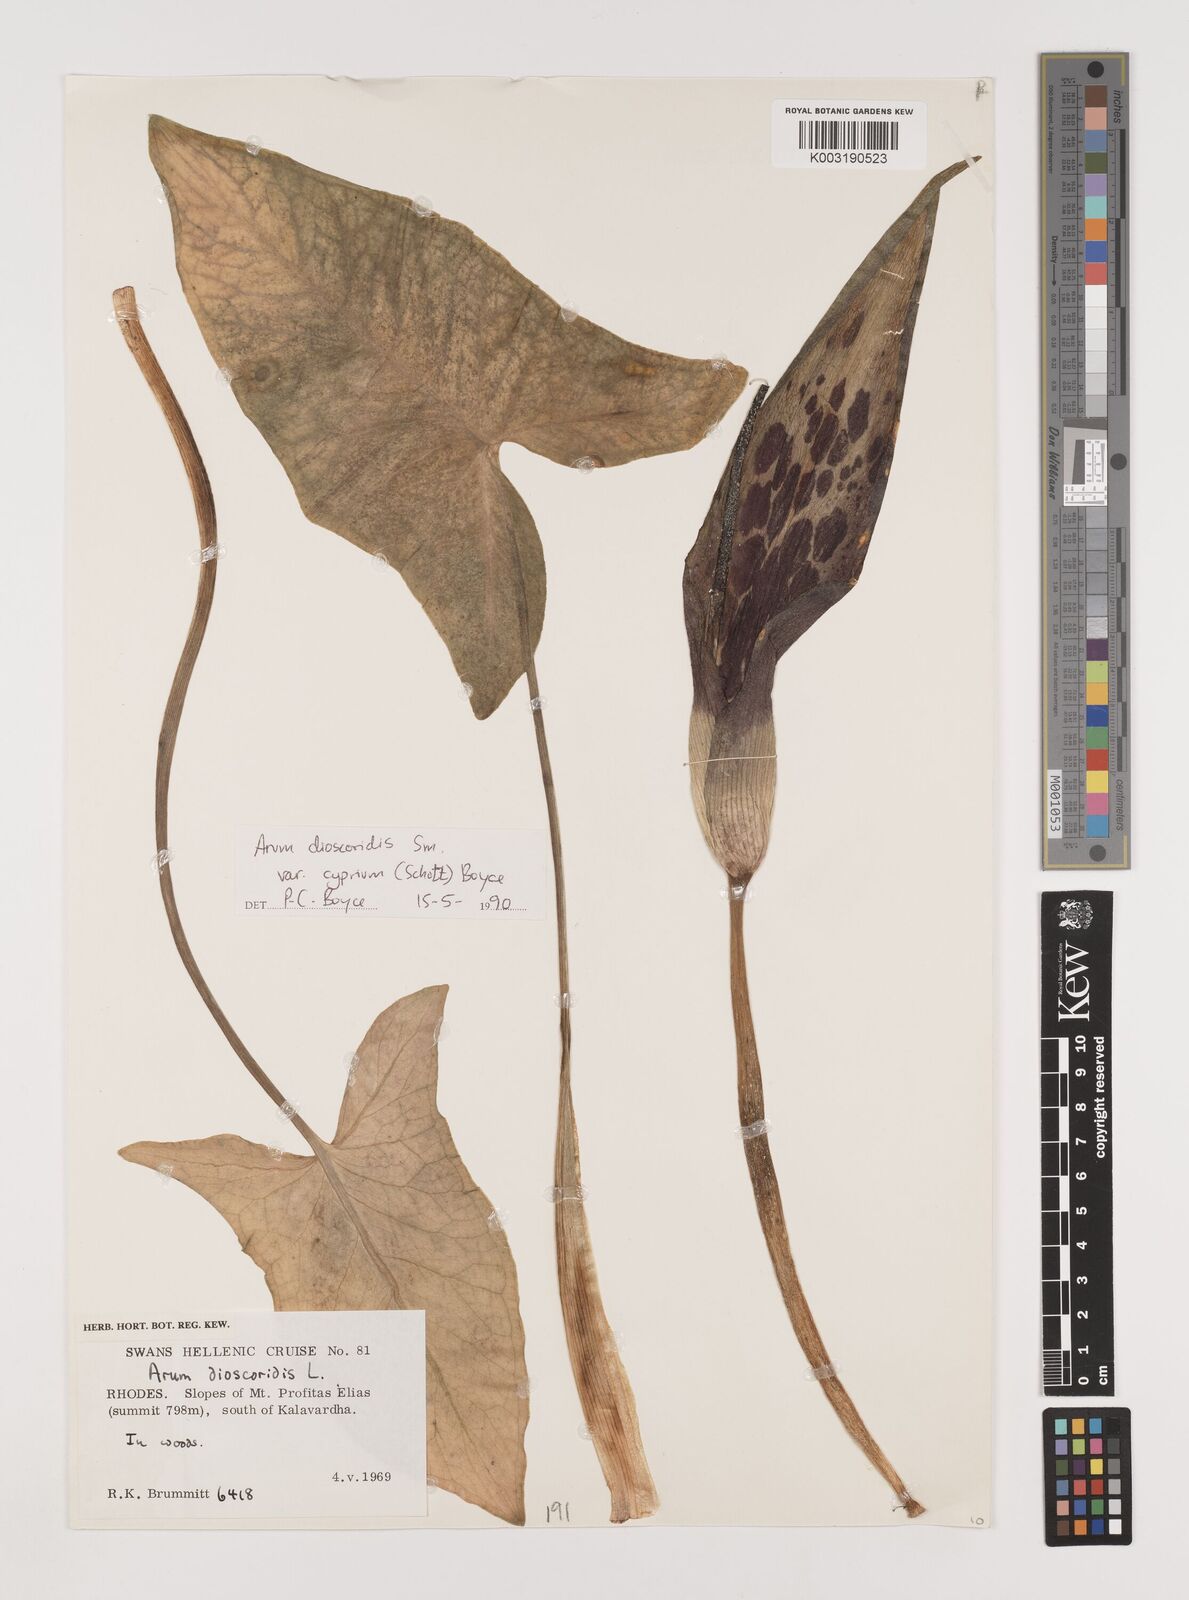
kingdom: Plantae
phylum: Tracheophyta
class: Liliopsida
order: Alismatales
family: Araceae
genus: Arum
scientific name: Arum dioscoridis
